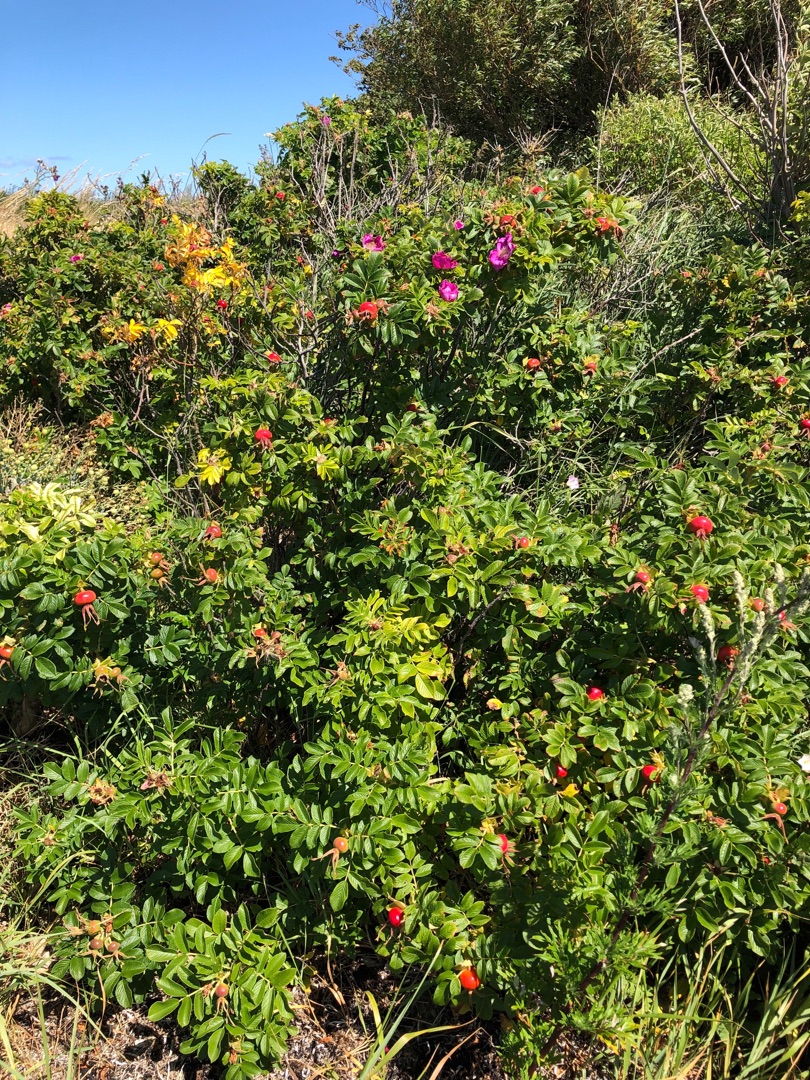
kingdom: Plantae
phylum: Tracheophyta
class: Magnoliopsida
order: Rosales
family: Rosaceae
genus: Rosa
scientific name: Rosa rugosa
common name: Rynket rose
